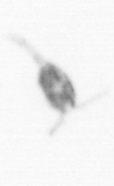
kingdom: Animalia
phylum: Arthropoda
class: Copepoda
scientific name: Copepoda
